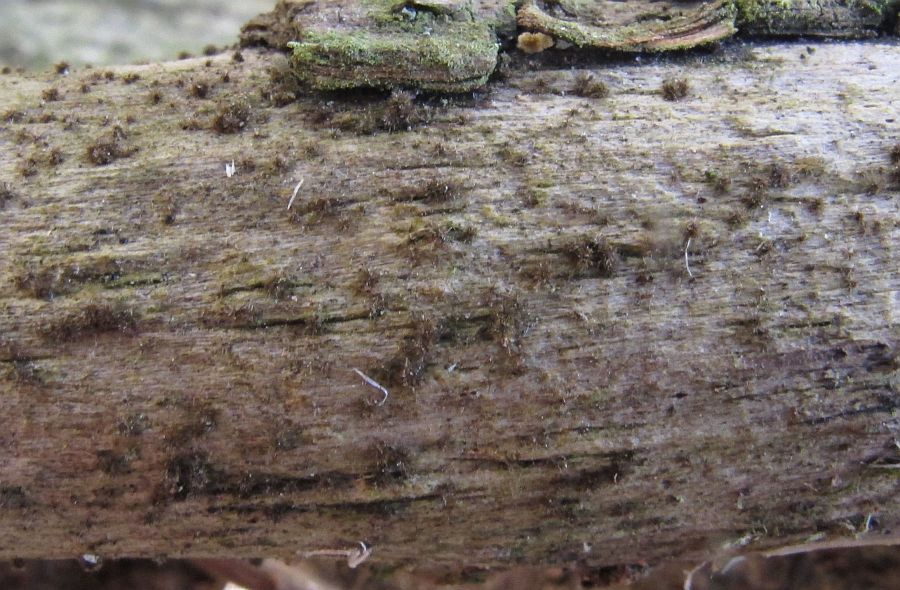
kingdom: Fungi
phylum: Ascomycota
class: Sordariomycetes
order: Sordariales
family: Helminthosphaeriaceae
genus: Echinosphaeria
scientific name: Echinosphaeria strigosa
